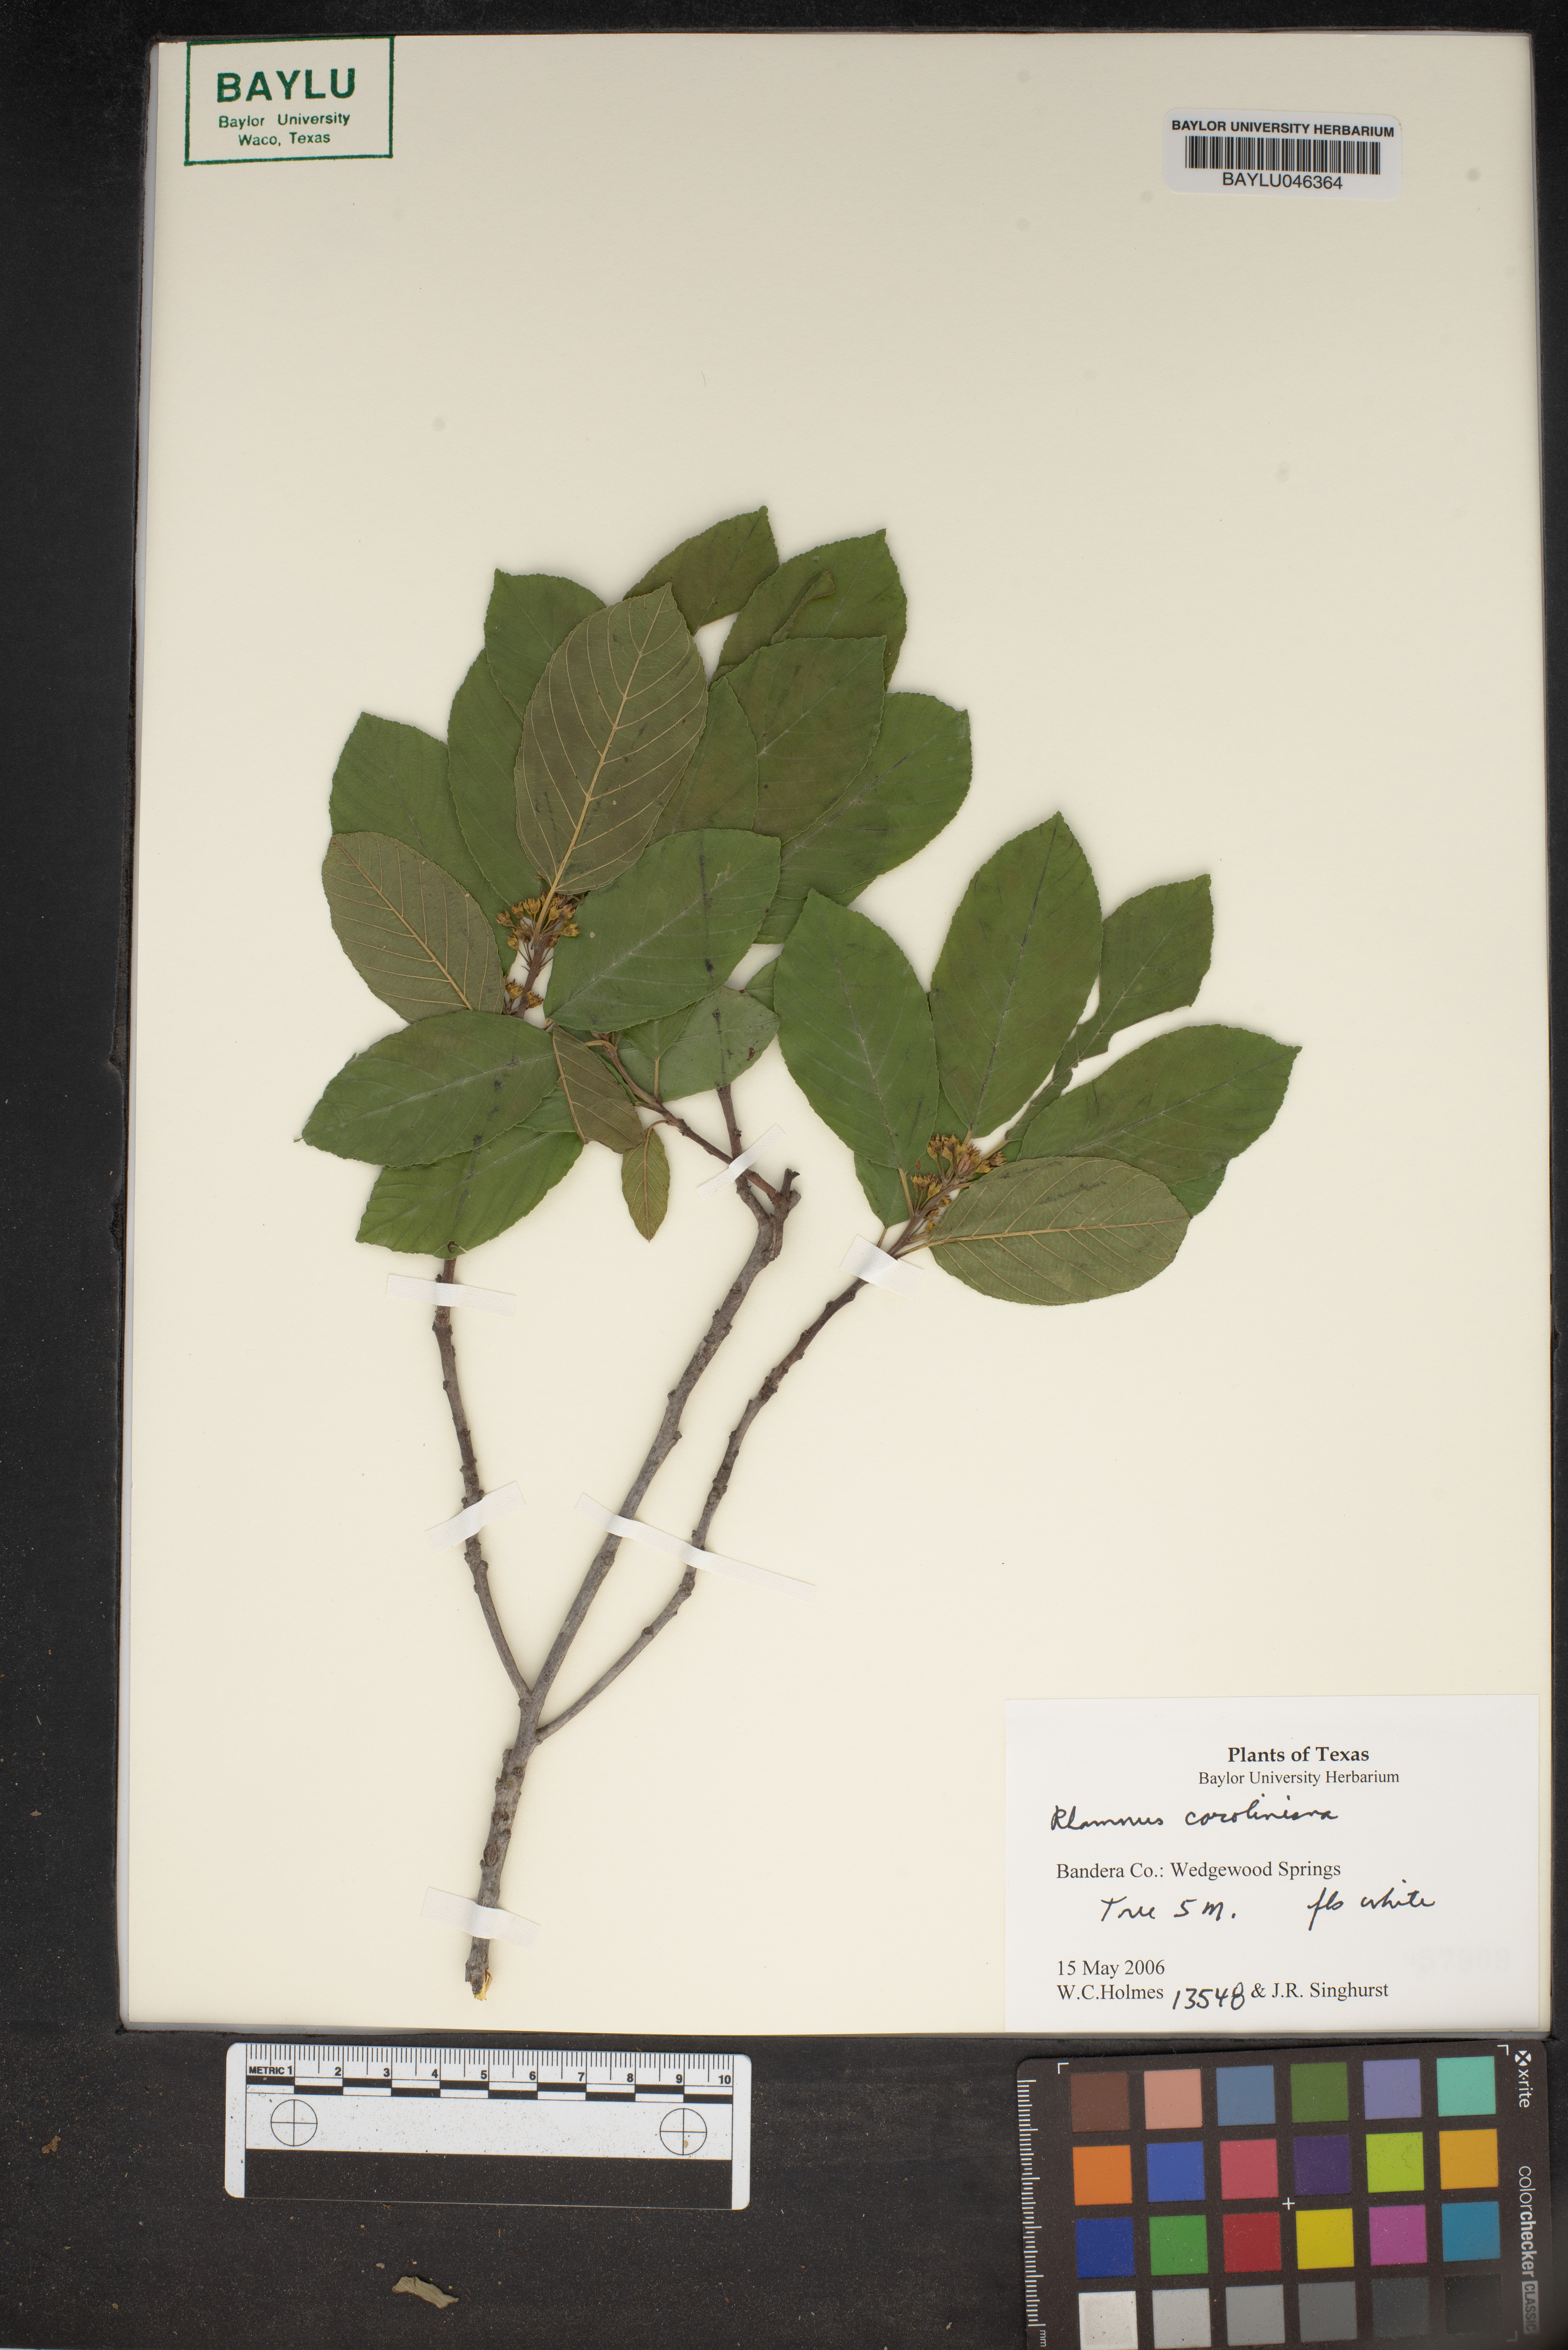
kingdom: Plantae
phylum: Tracheophyta
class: Magnoliopsida
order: Rosales
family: Rhamnaceae
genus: Frangula
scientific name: Frangula caroliniana
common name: Carolina buckthorn
